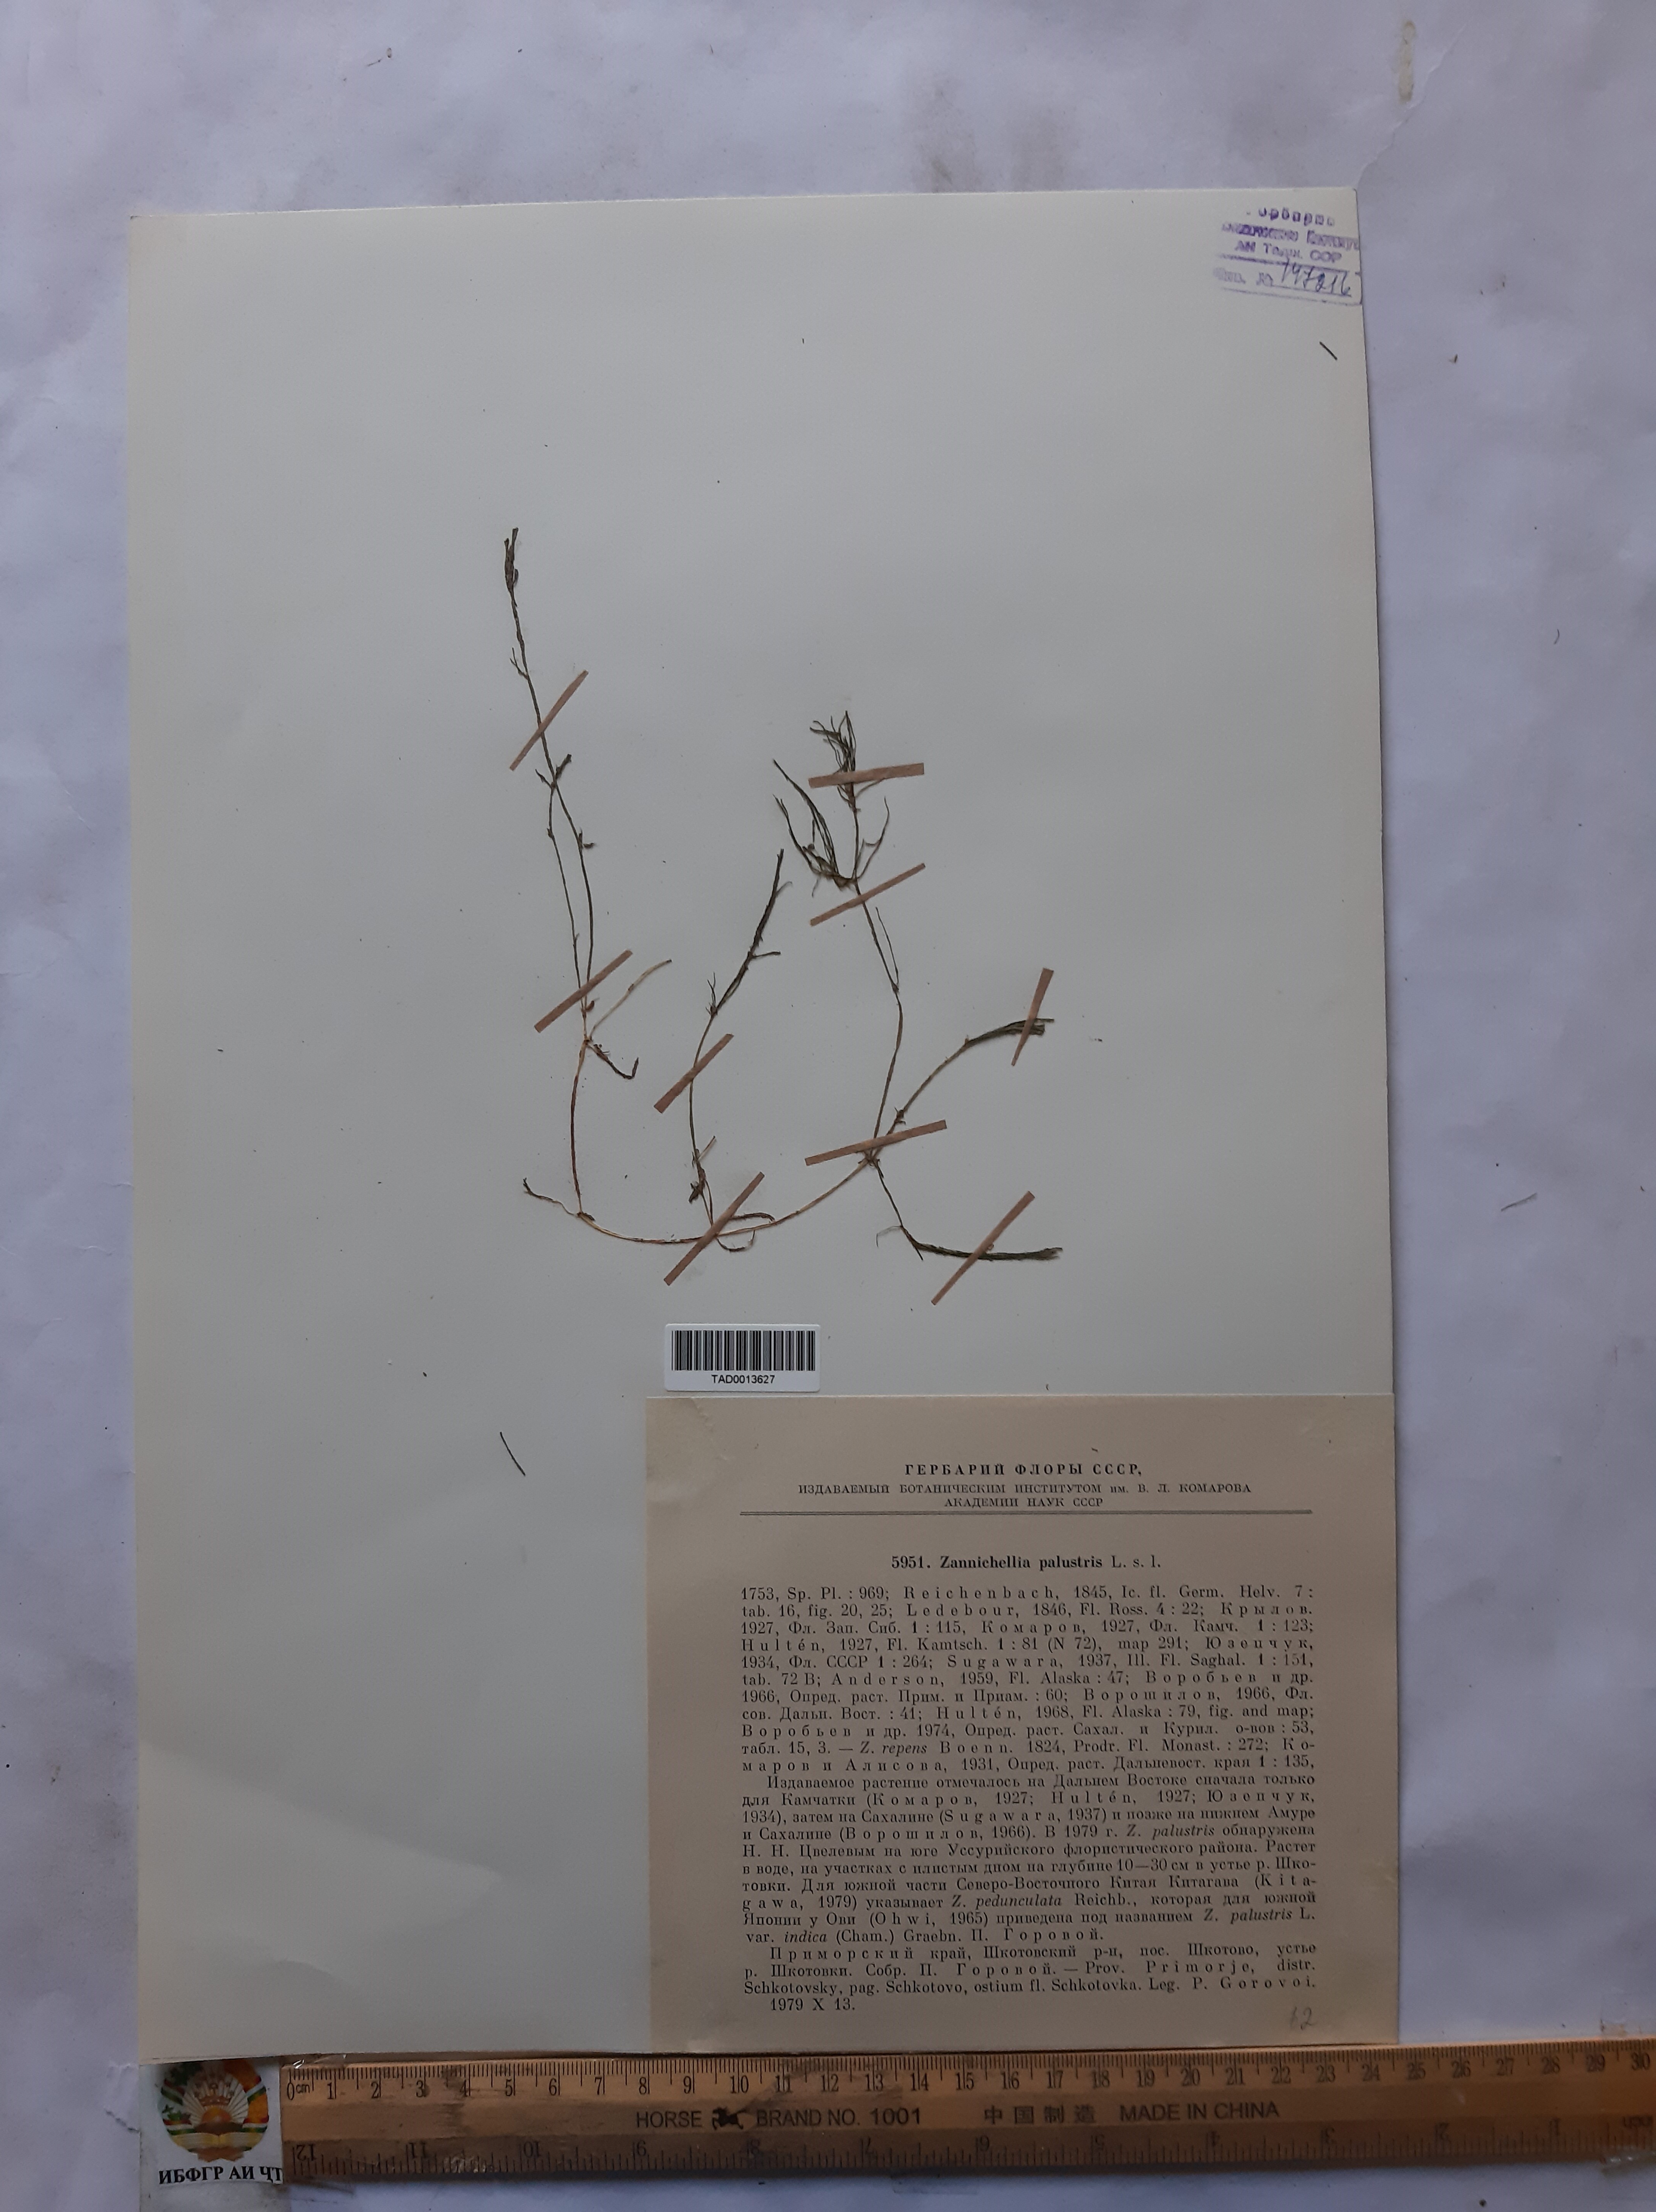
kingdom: Plantae
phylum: Tracheophyta
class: Liliopsida
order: Alismatales
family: Potamogetonaceae
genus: Zannichellia
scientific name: Zannichellia palustris
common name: Horned pondweed
